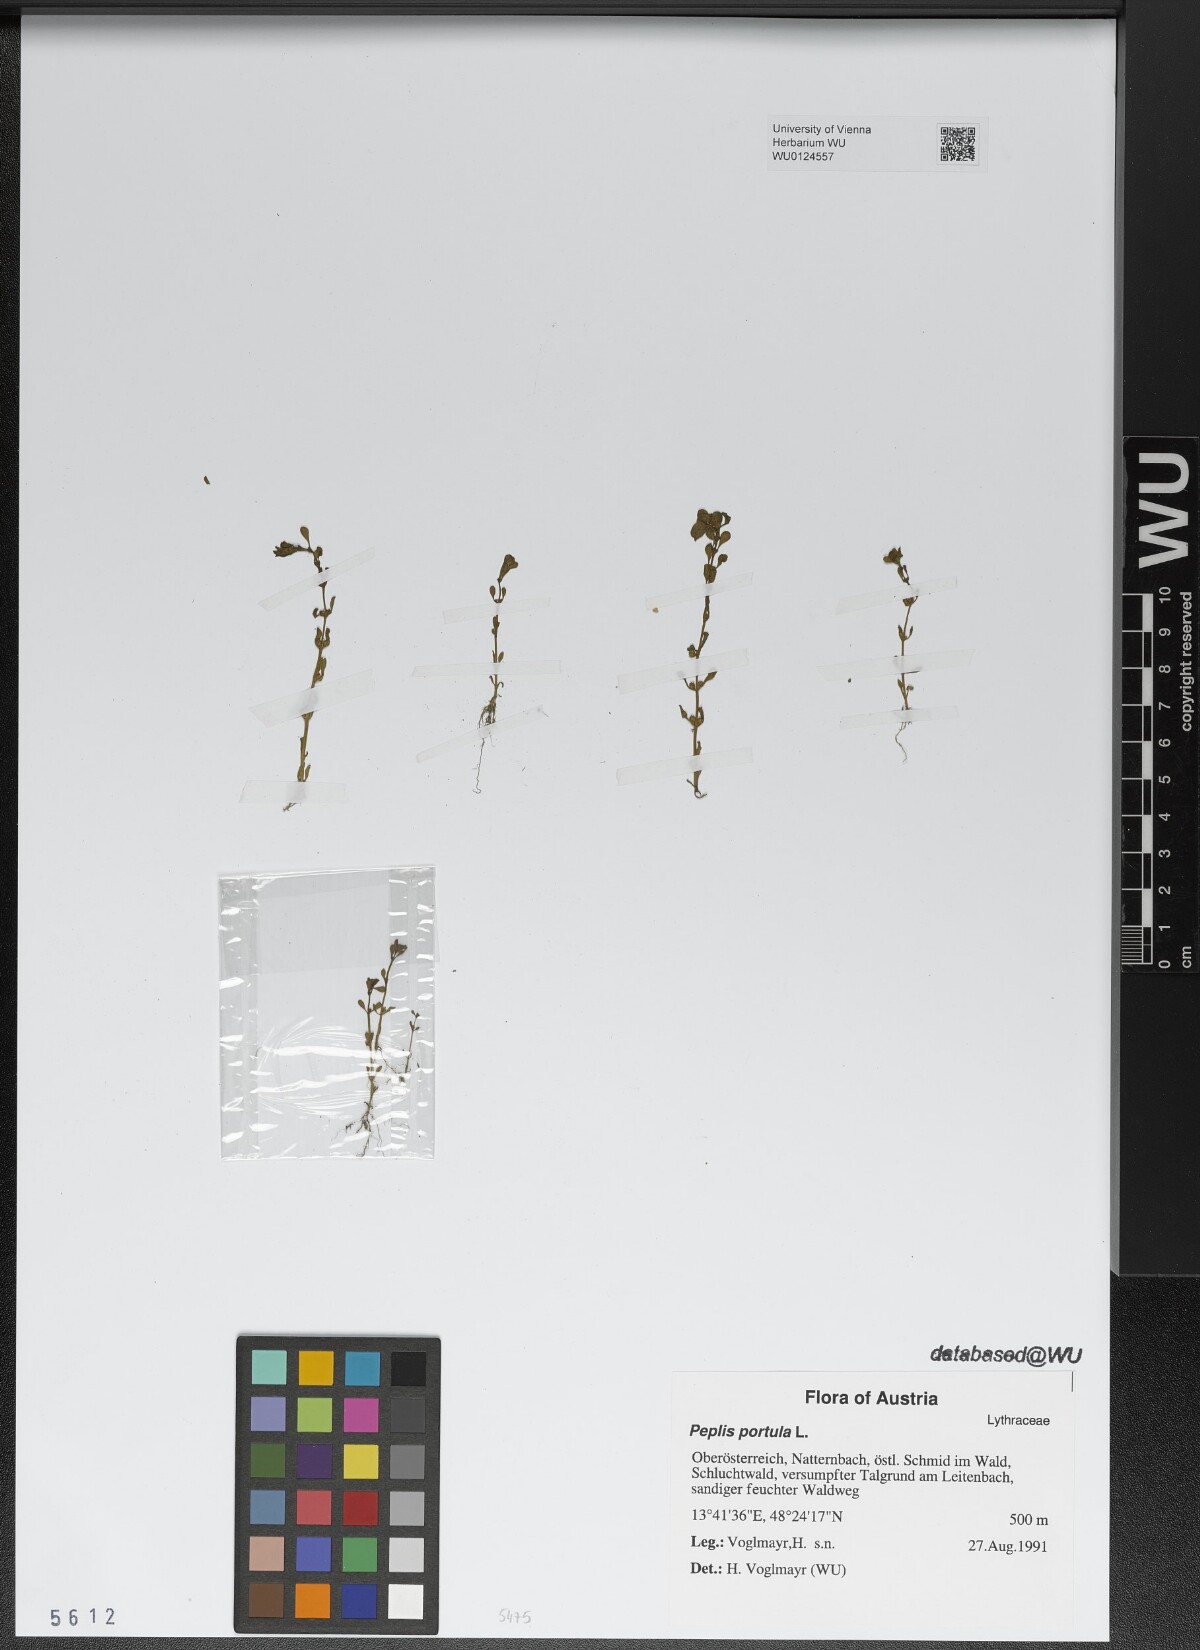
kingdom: Plantae
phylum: Tracheophyta
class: Magnoliopsida
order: Myrtales
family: Lythraceae
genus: Lythrum
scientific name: Lythrum portula
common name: Water purslane
